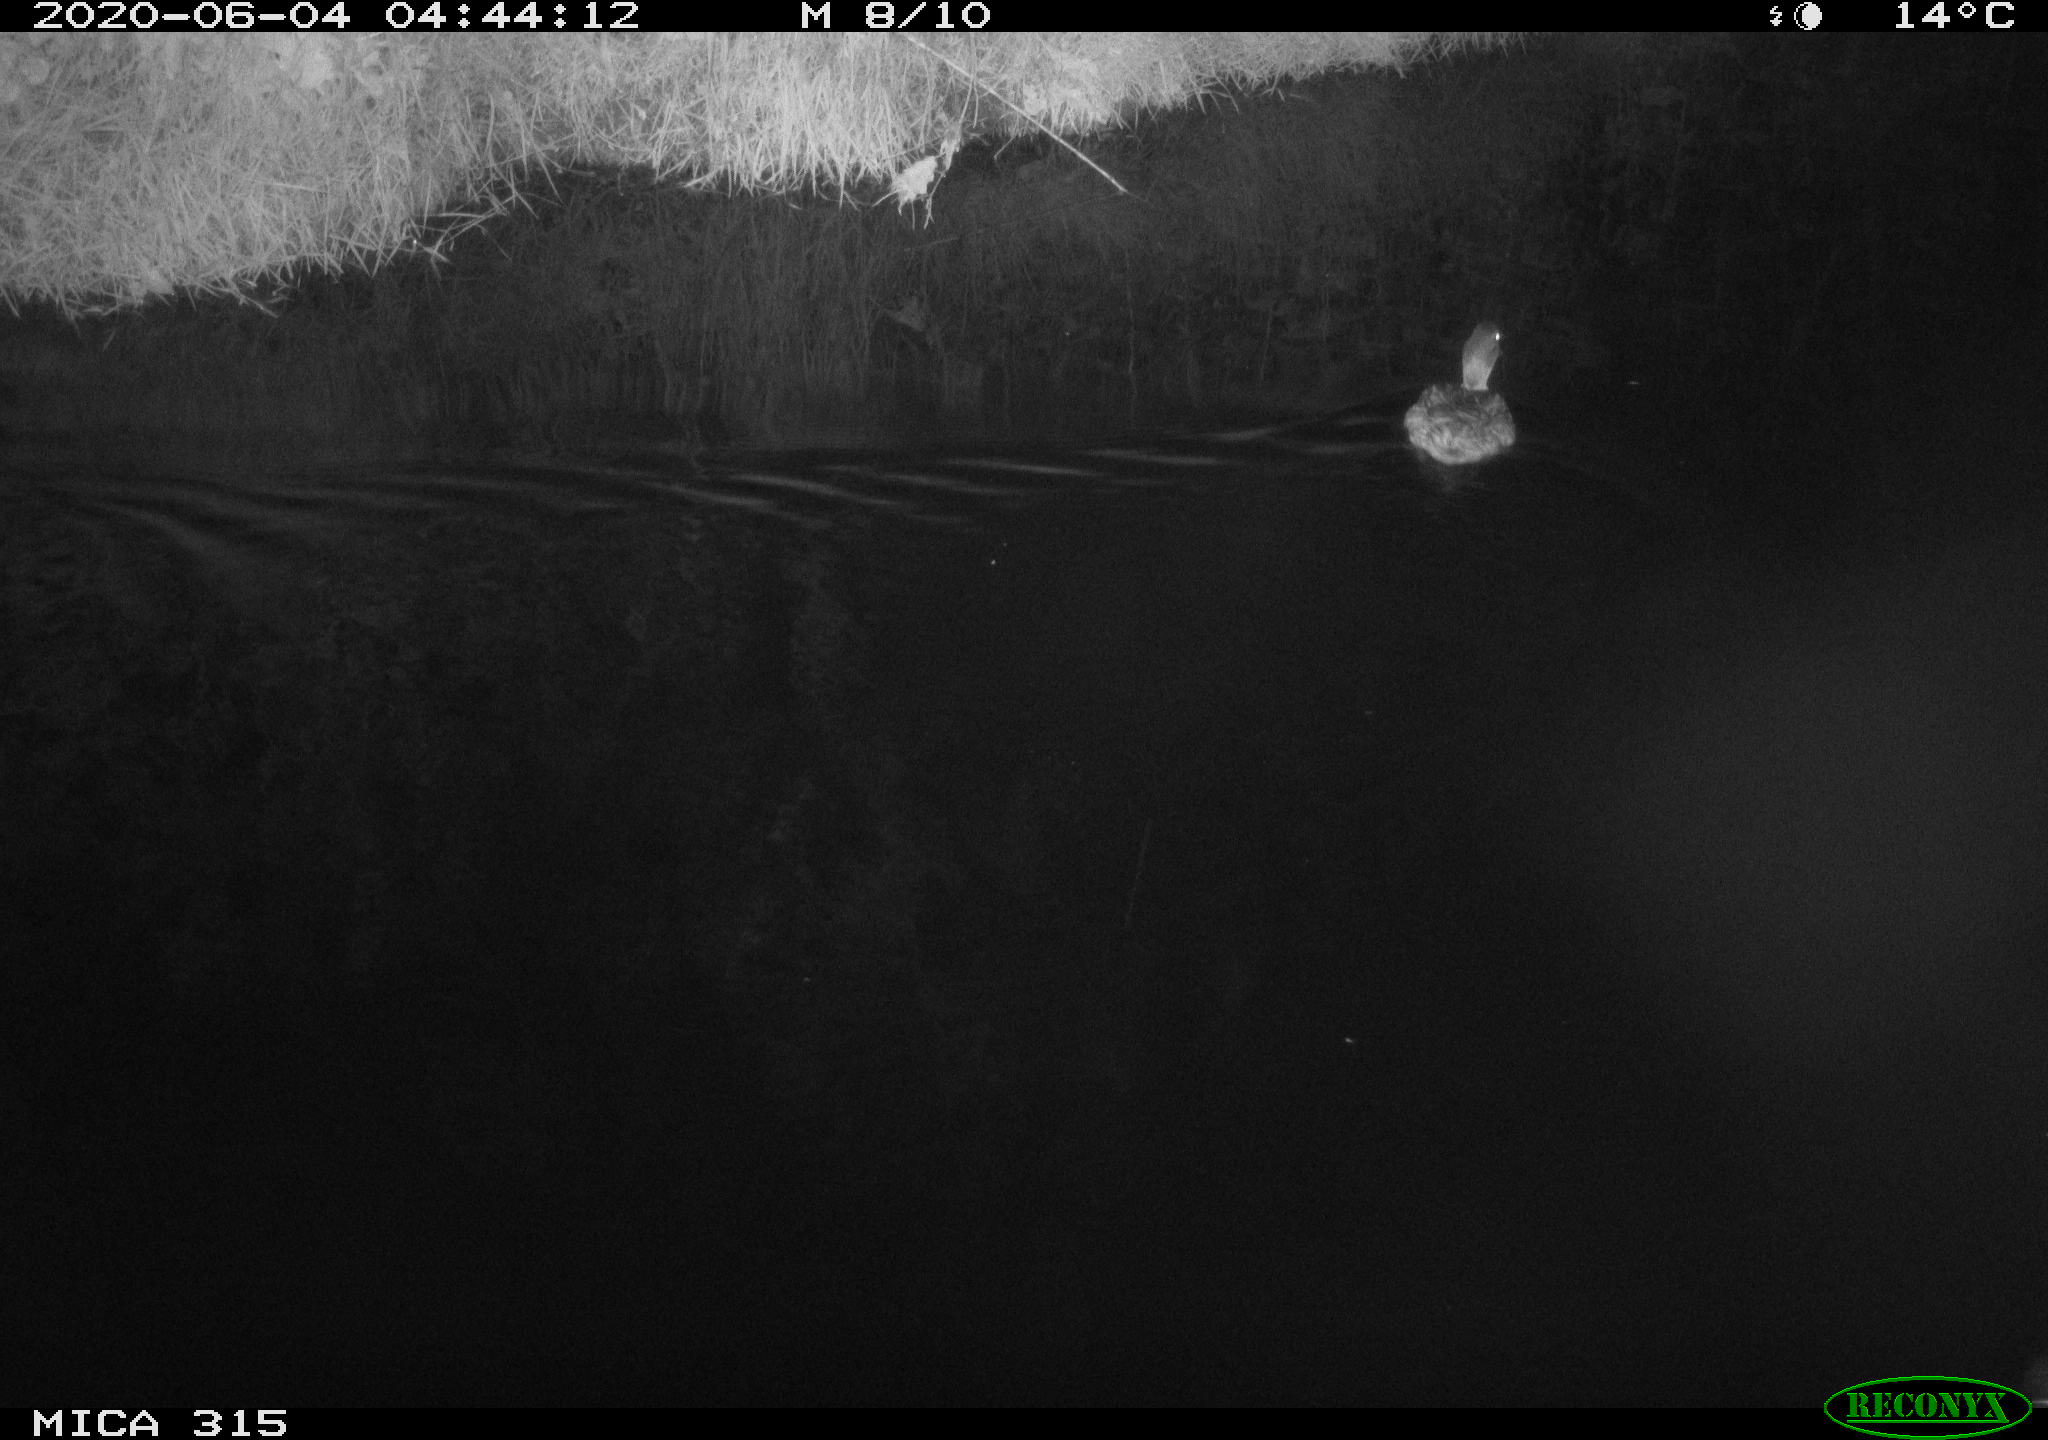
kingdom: Animalia
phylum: Chordata
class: Aves
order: Anseriformes
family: Anatidae
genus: Anas
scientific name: Anas platyrhynchos
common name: Mallard
